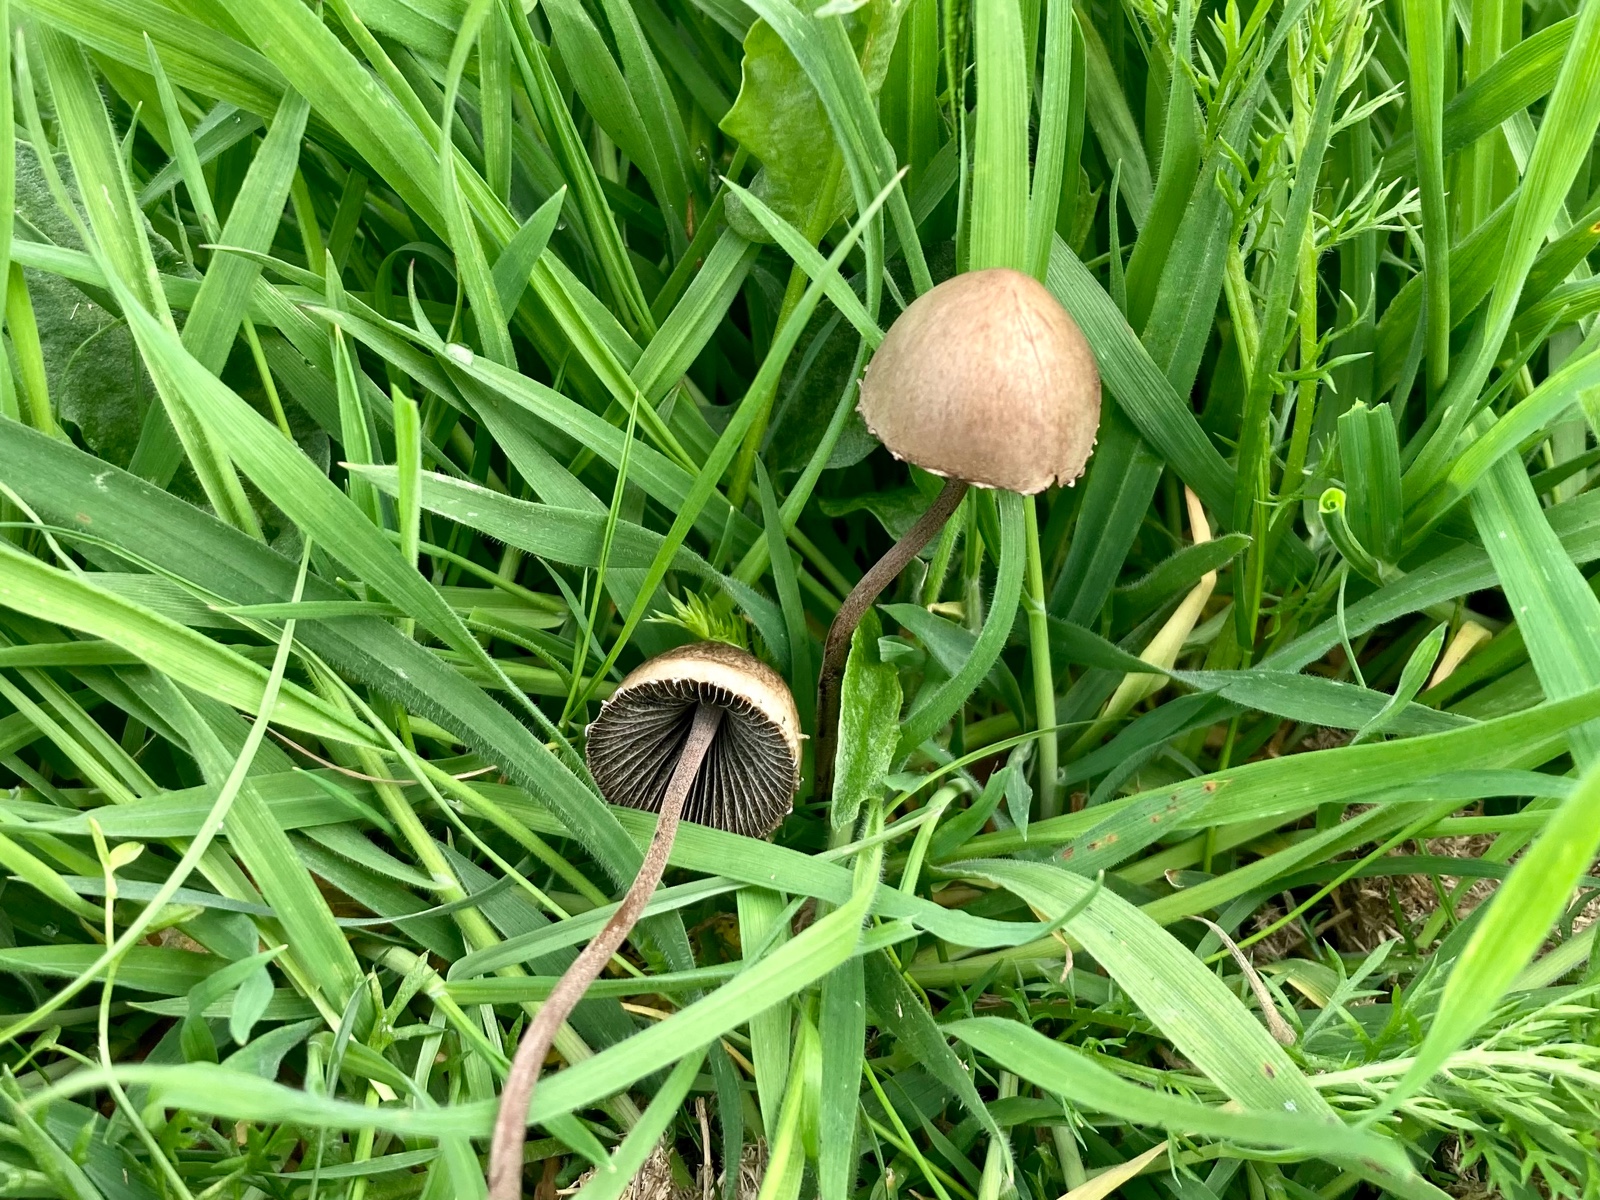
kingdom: Fungi
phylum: Basidiomycota
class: Agaricomycetes
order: Agaricales
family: Bolbitiaceae
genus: Panaeolus
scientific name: Panaeolus papilionaceus
